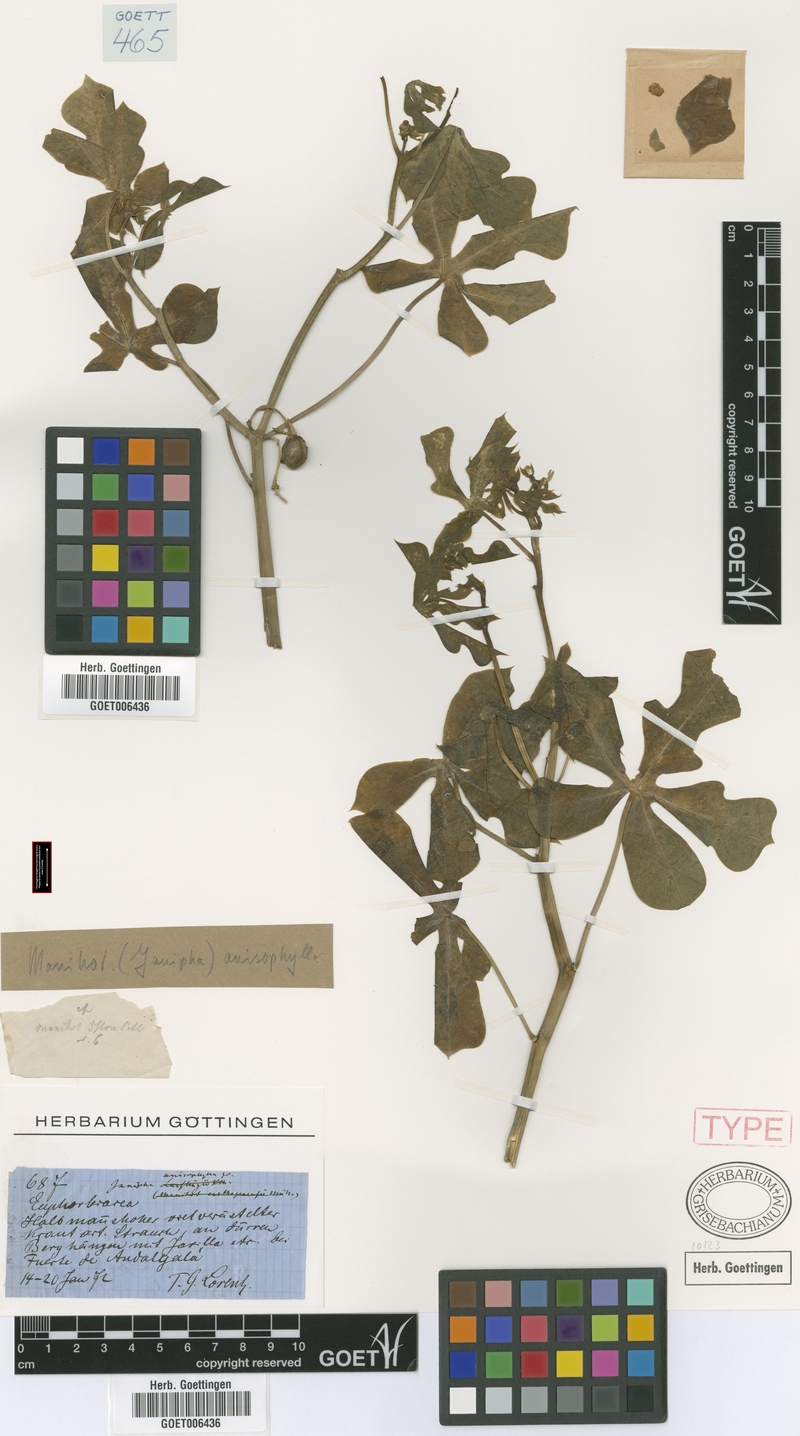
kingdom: Plantae
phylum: Tracheophyta
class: Magnoliopsida
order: Malpighiales
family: Euphorbiaceae
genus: Manihot
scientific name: Manihot anisophylla
